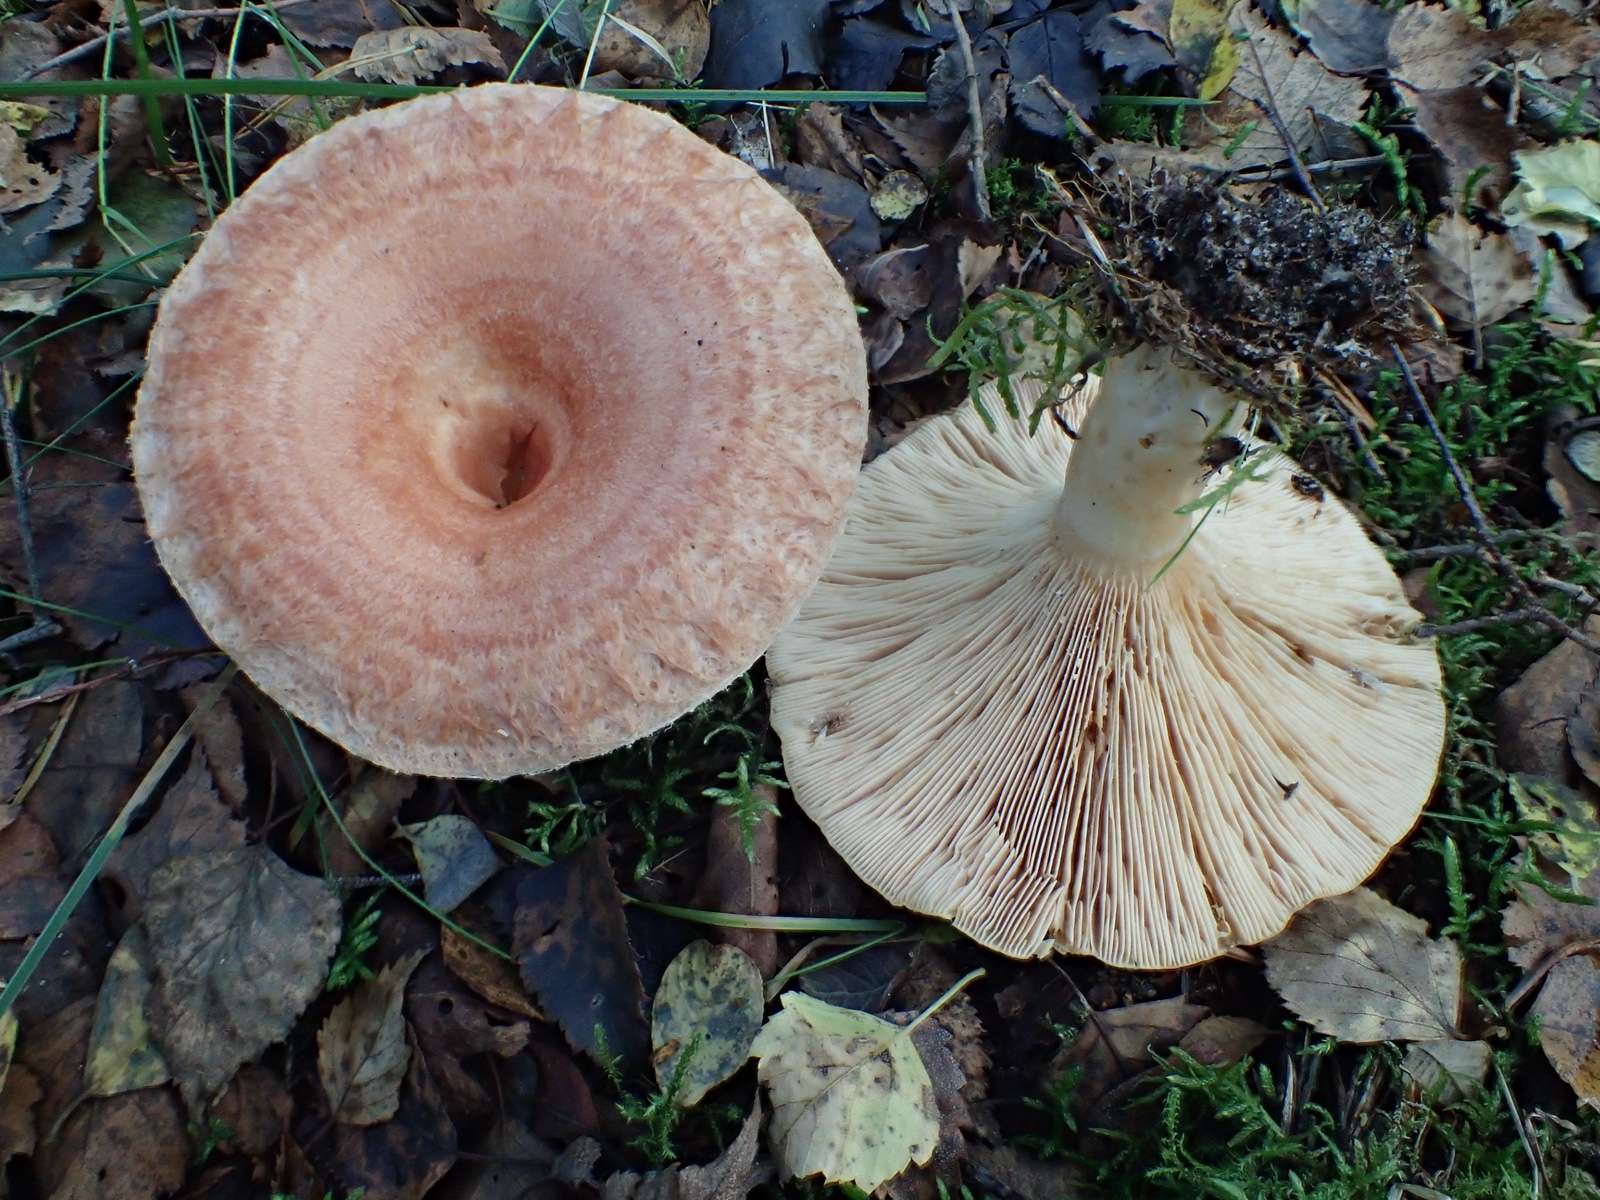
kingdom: Fungi
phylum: Basidiomycota
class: Agaricomycetes
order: Russulales
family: Russulaceae
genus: Lactarius
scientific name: Lactarius torminosus
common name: skægget mælkehat
